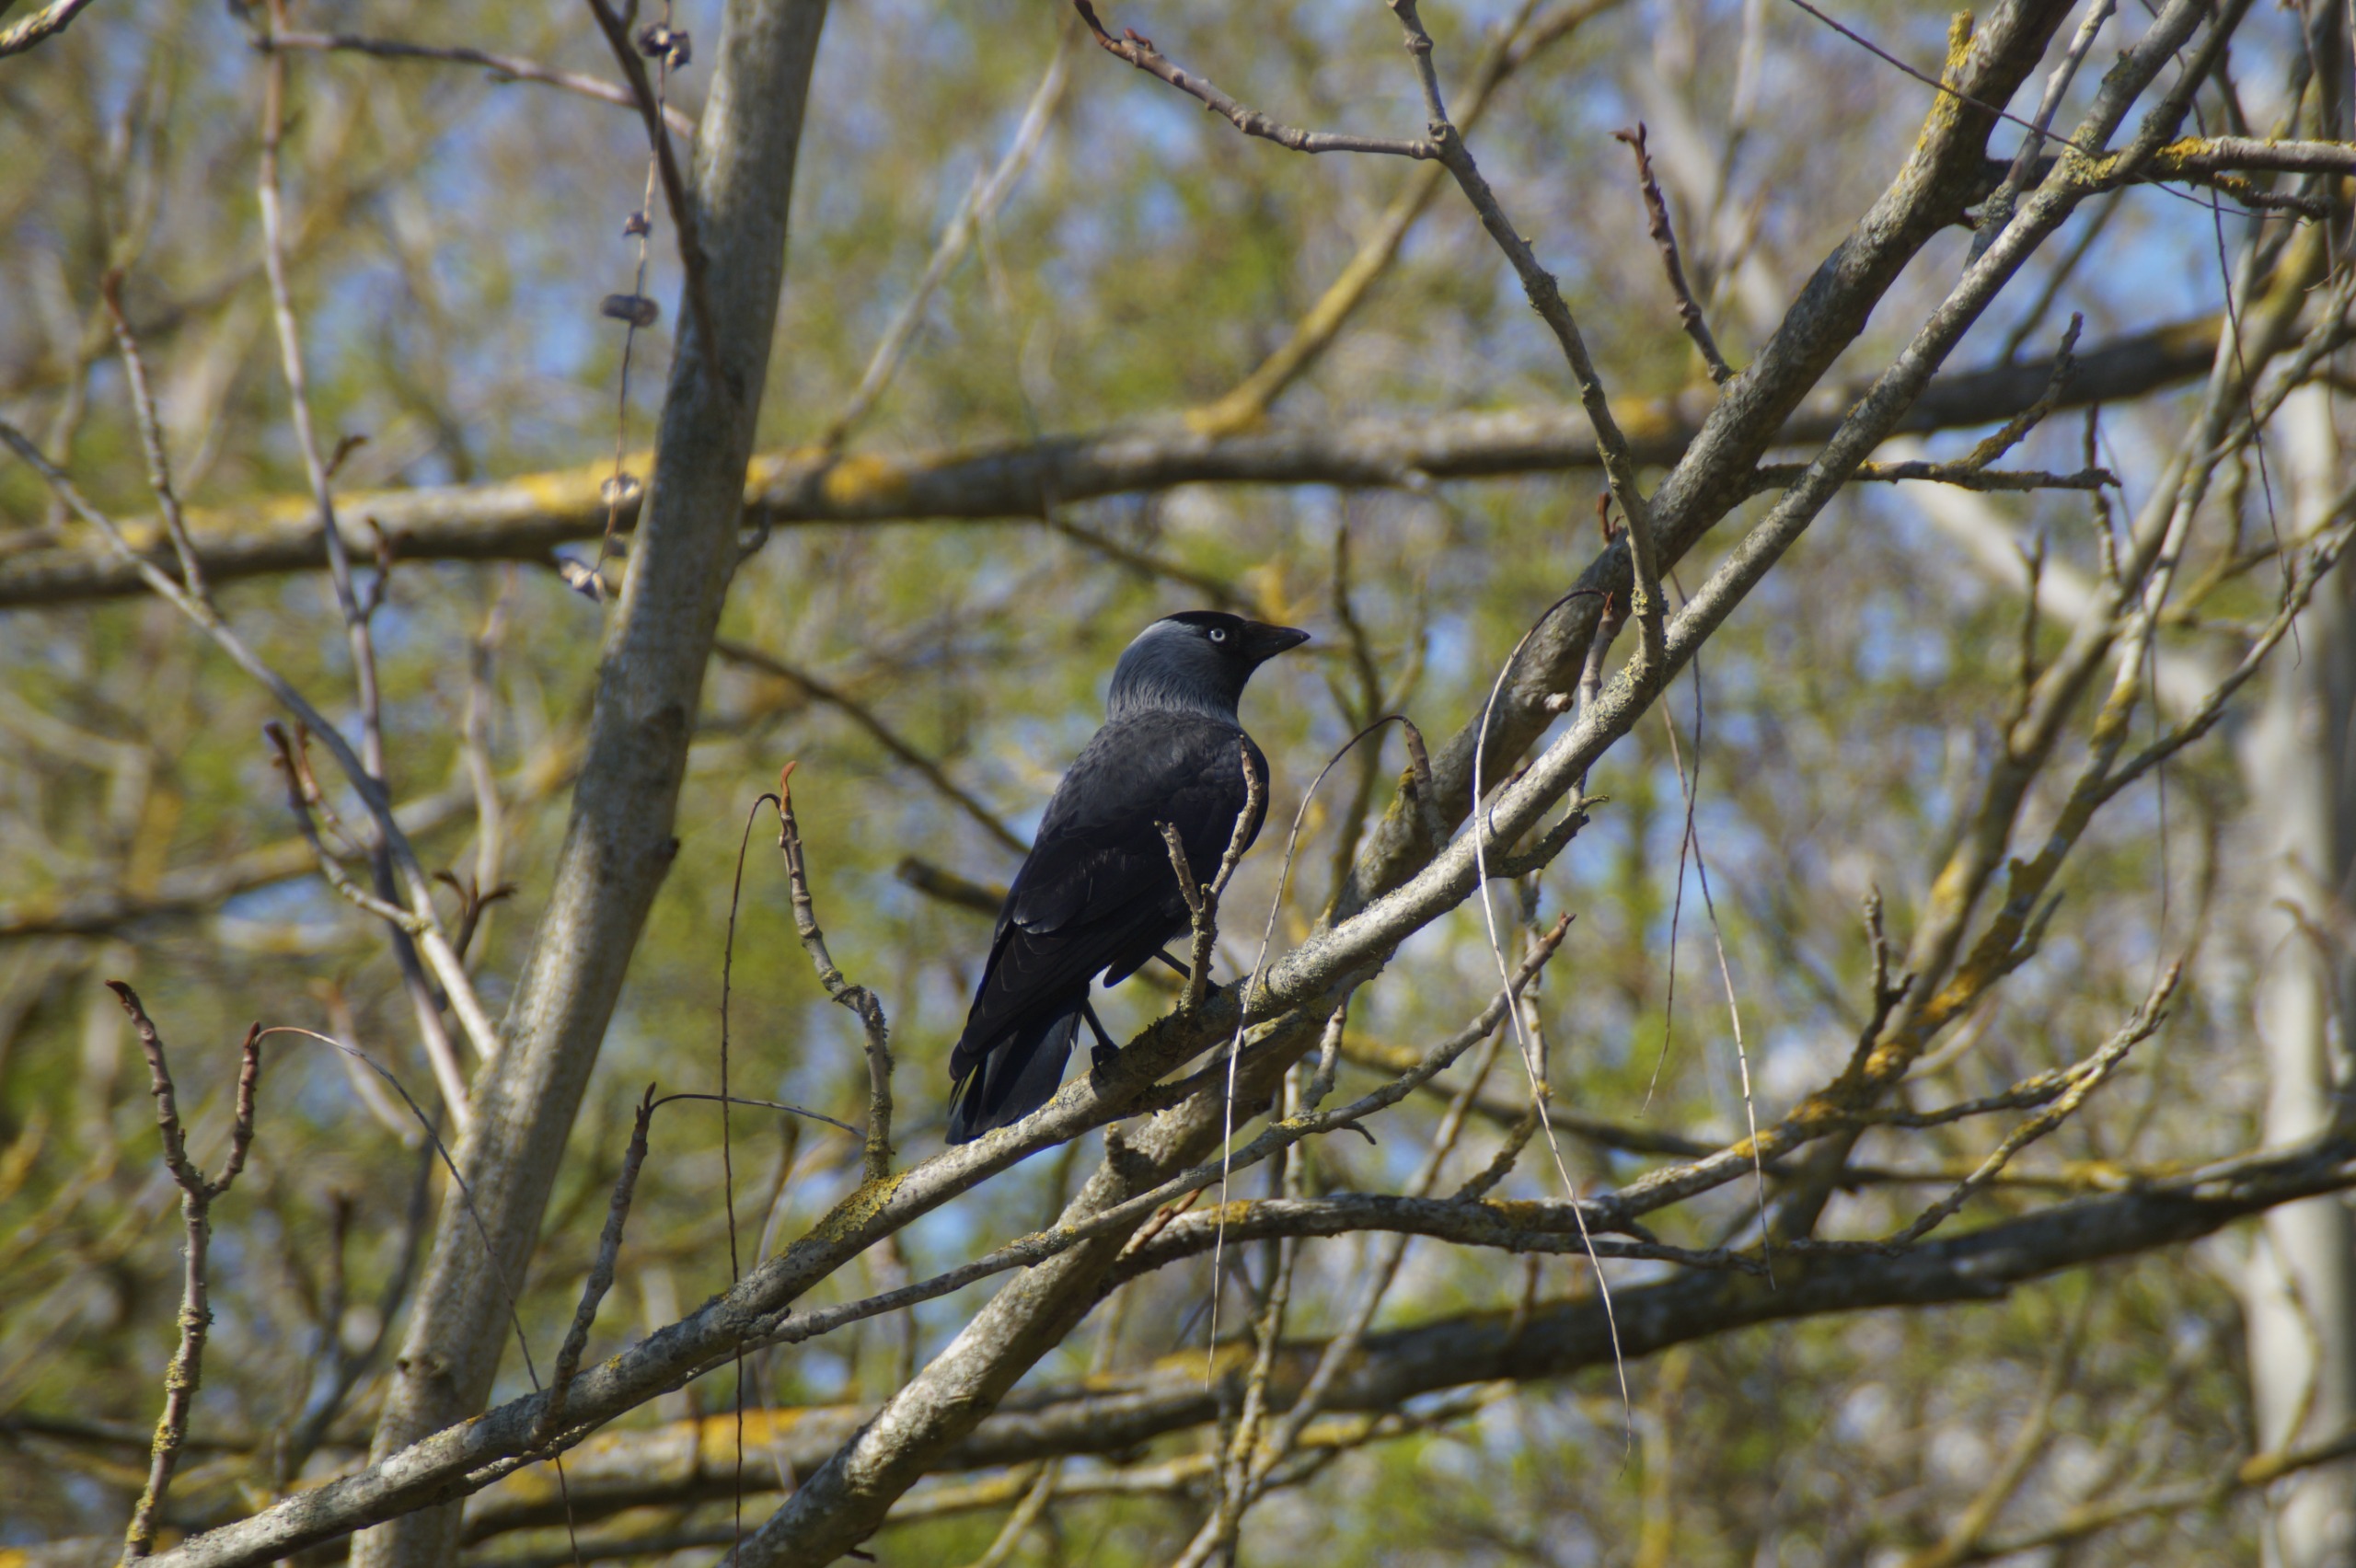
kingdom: Animalia
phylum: Chordata
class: Aves
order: Passeriformes
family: Corvidae
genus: Coloeus
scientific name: Coloeus monedula
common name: Allike
